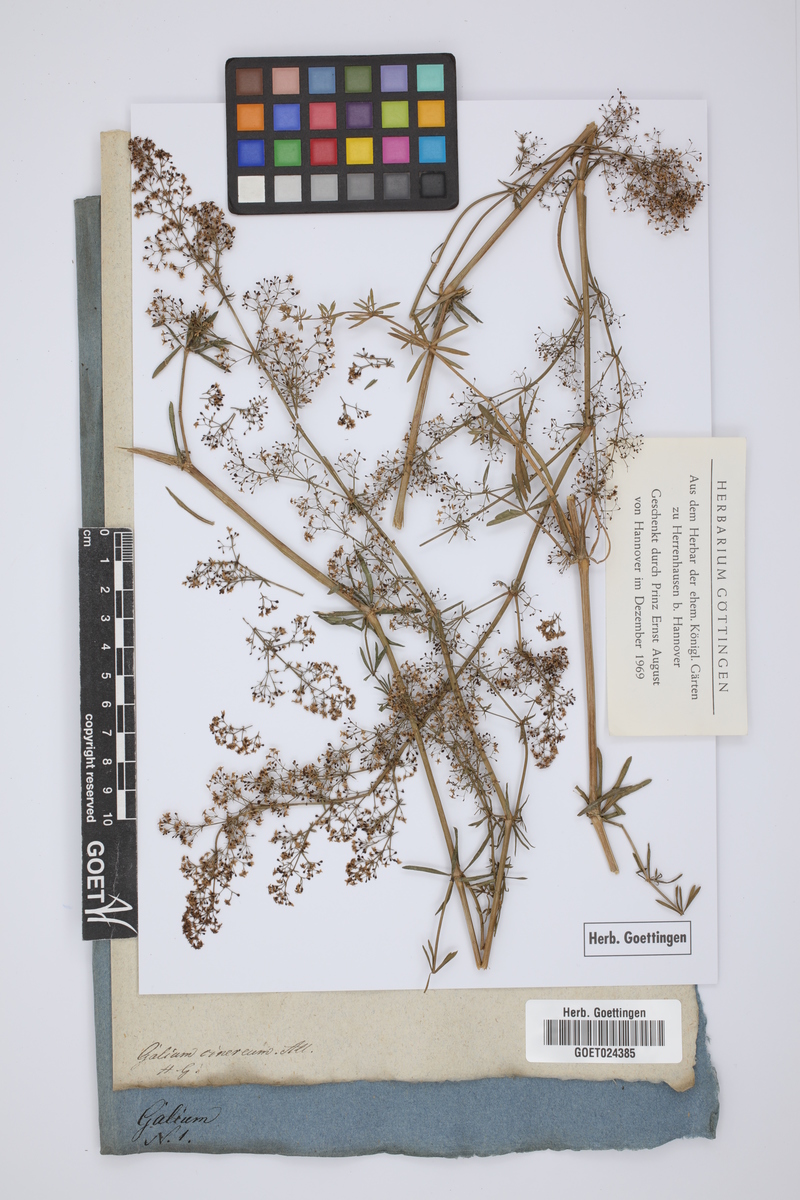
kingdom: Plantae
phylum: Tracheophyta
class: Magnoliopsida
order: Gentianales
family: Rubiaceae
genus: Galium
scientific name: Galium cinereum
